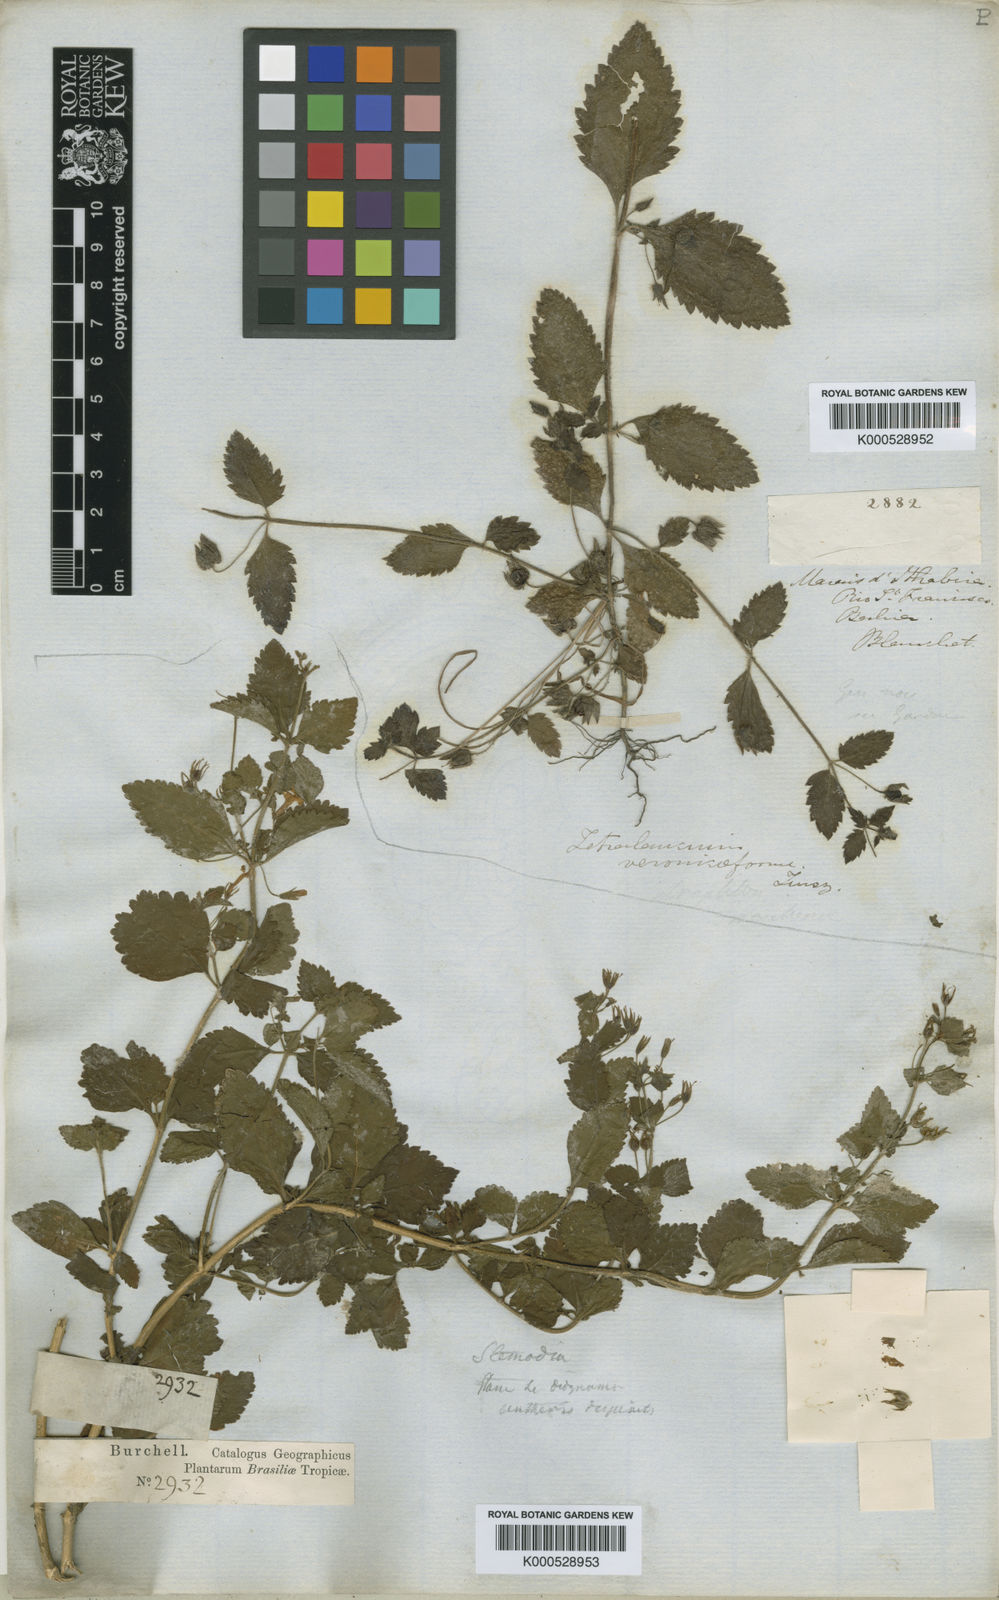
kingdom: Plantae
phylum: Tracheophyta
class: Magnoliopsida
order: Lamiales
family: Plantaginaceae
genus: Tetraulacium
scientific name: Tetraulacium veroniciforme
